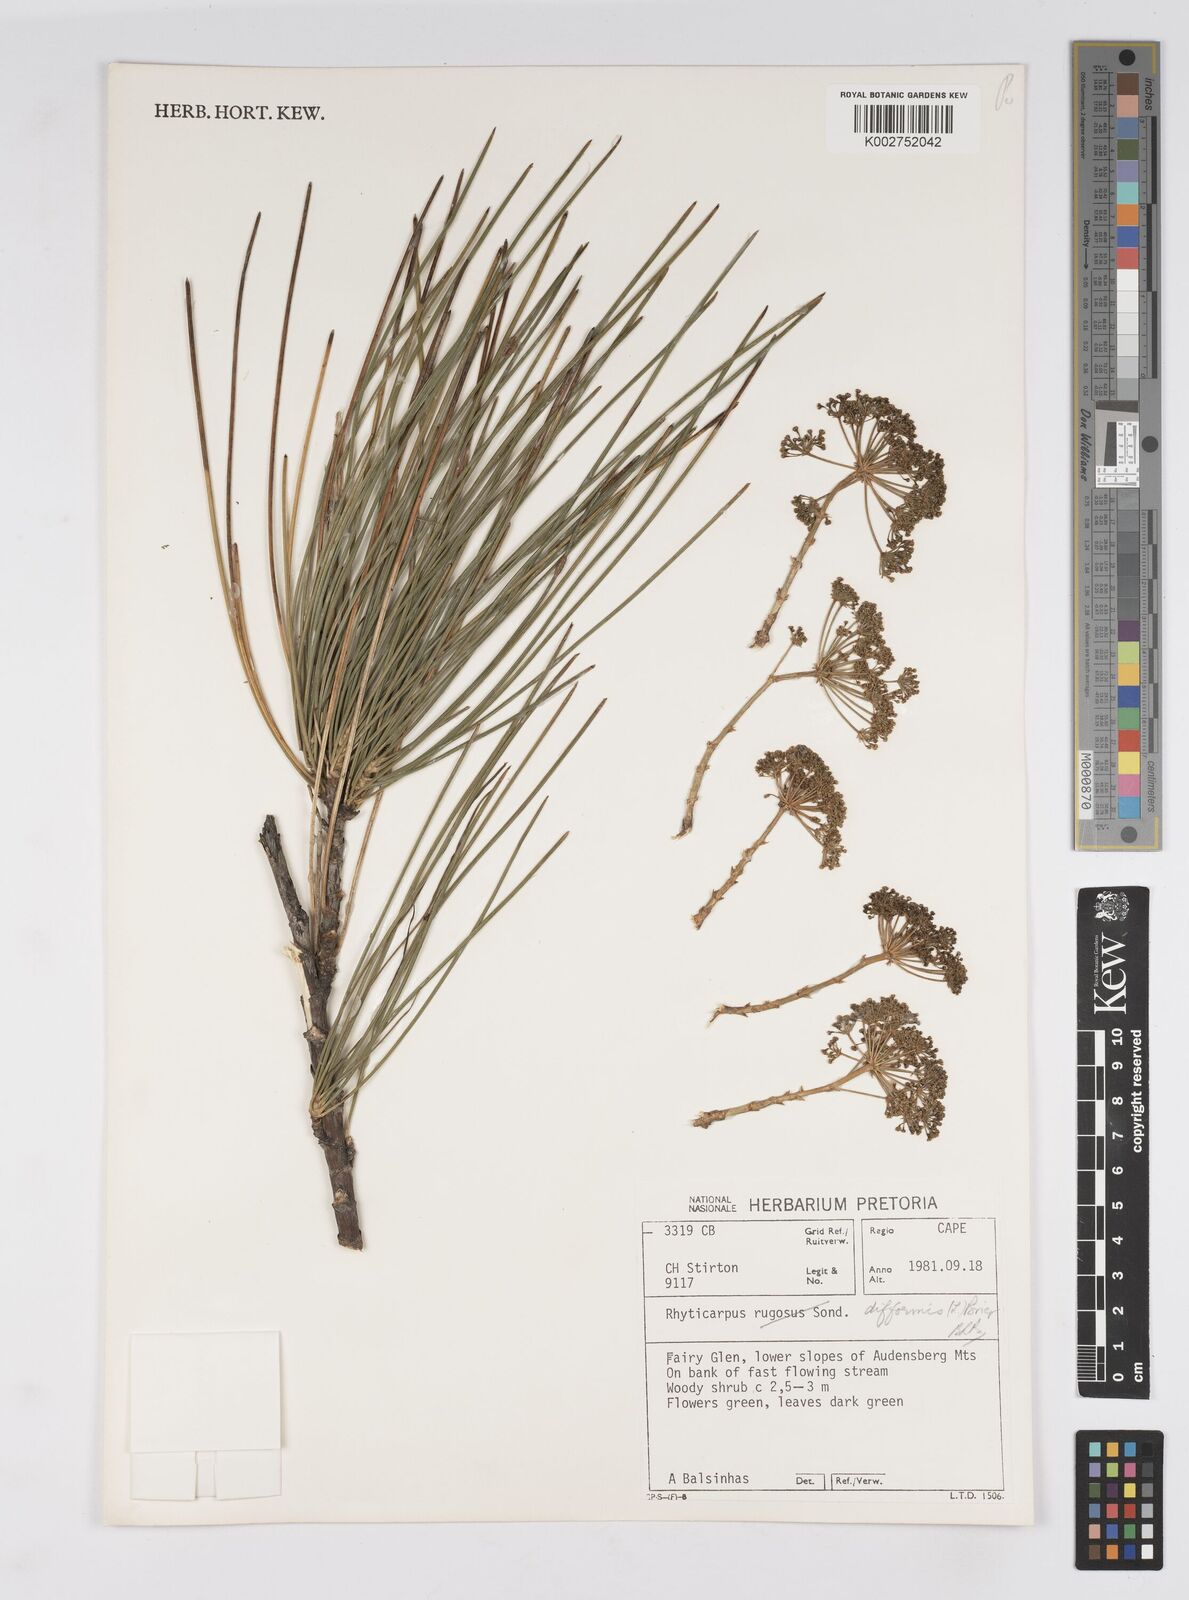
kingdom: Plantae
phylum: Tracheophyta
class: Magnoliopsida
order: Apiales
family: Apiaceae
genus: Anginon
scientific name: Anginon difforme
